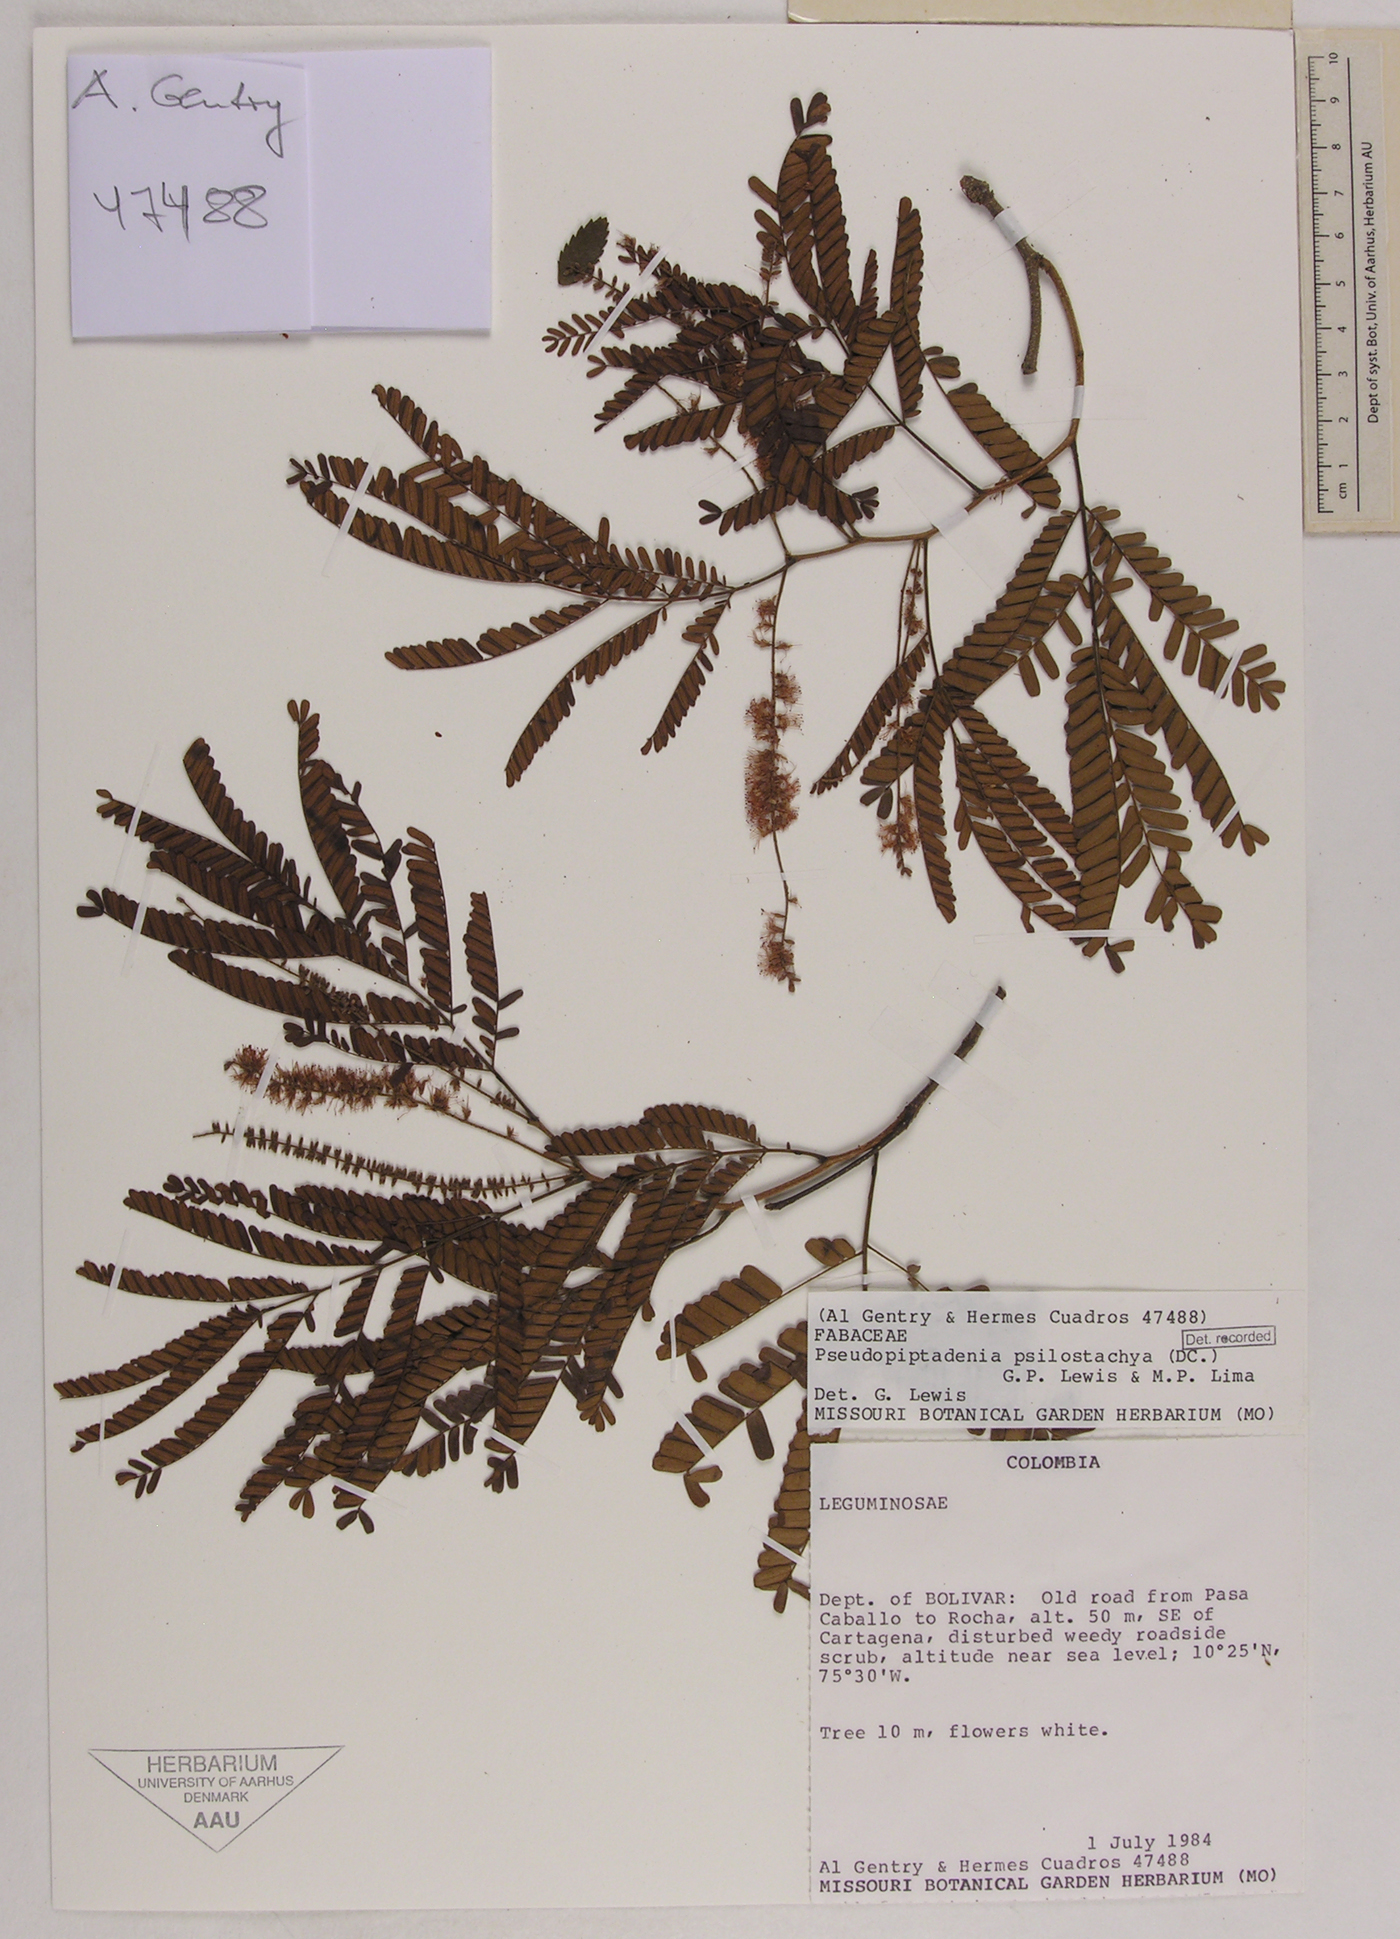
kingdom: Plantae
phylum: Tracheophyta
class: Magnoliopsida
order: Fabales
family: Fabaceae
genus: Pseudopiptadenia
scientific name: Pseudopiptadenia psilostachya
